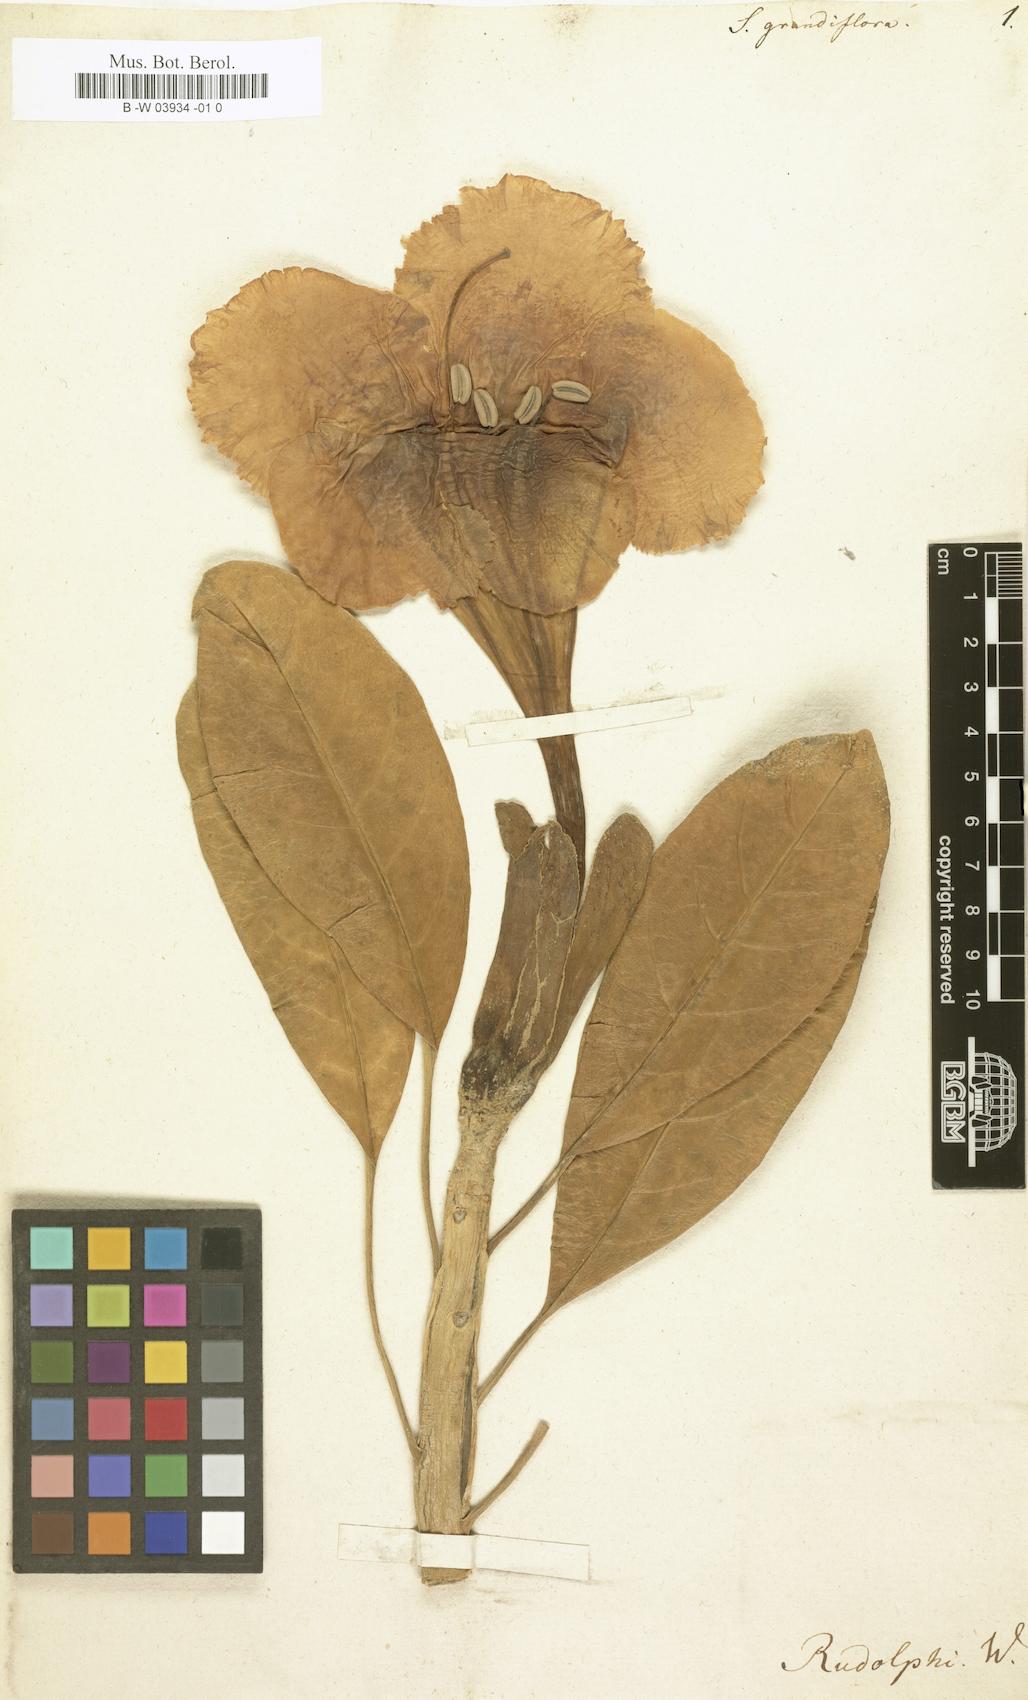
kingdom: Plantae
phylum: Tracheophyta
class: Magnoliopsida
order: Solanales
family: Solanaceae
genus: Solandra
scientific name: Solandra grandiflora
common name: Showy chalicevine
